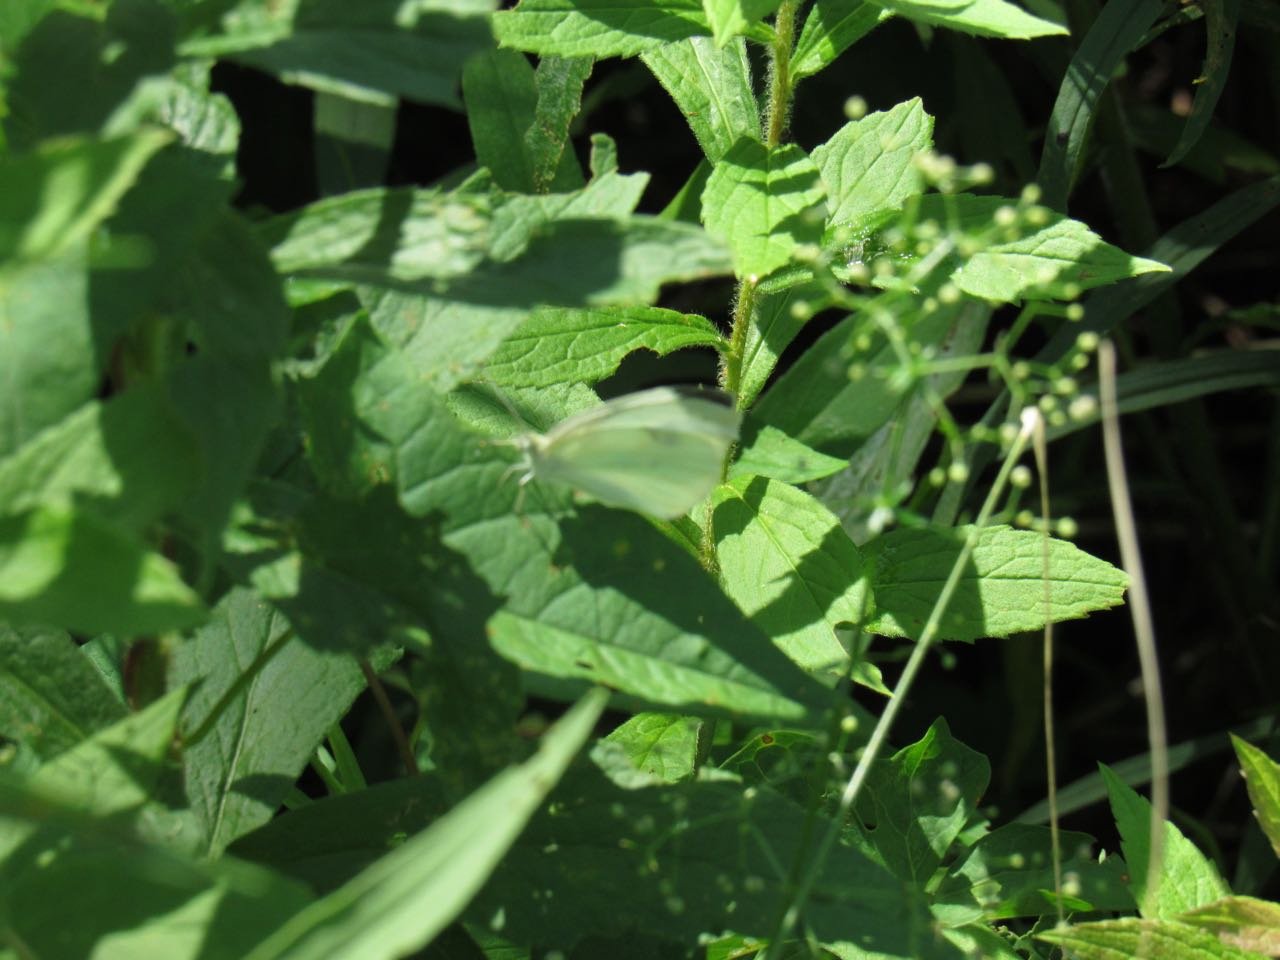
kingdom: Animalia
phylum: Arthropoda
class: Insecta
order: Lepidoptera
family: Pieridae
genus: Pieris
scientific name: Pieris rapae
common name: Cabbage White
